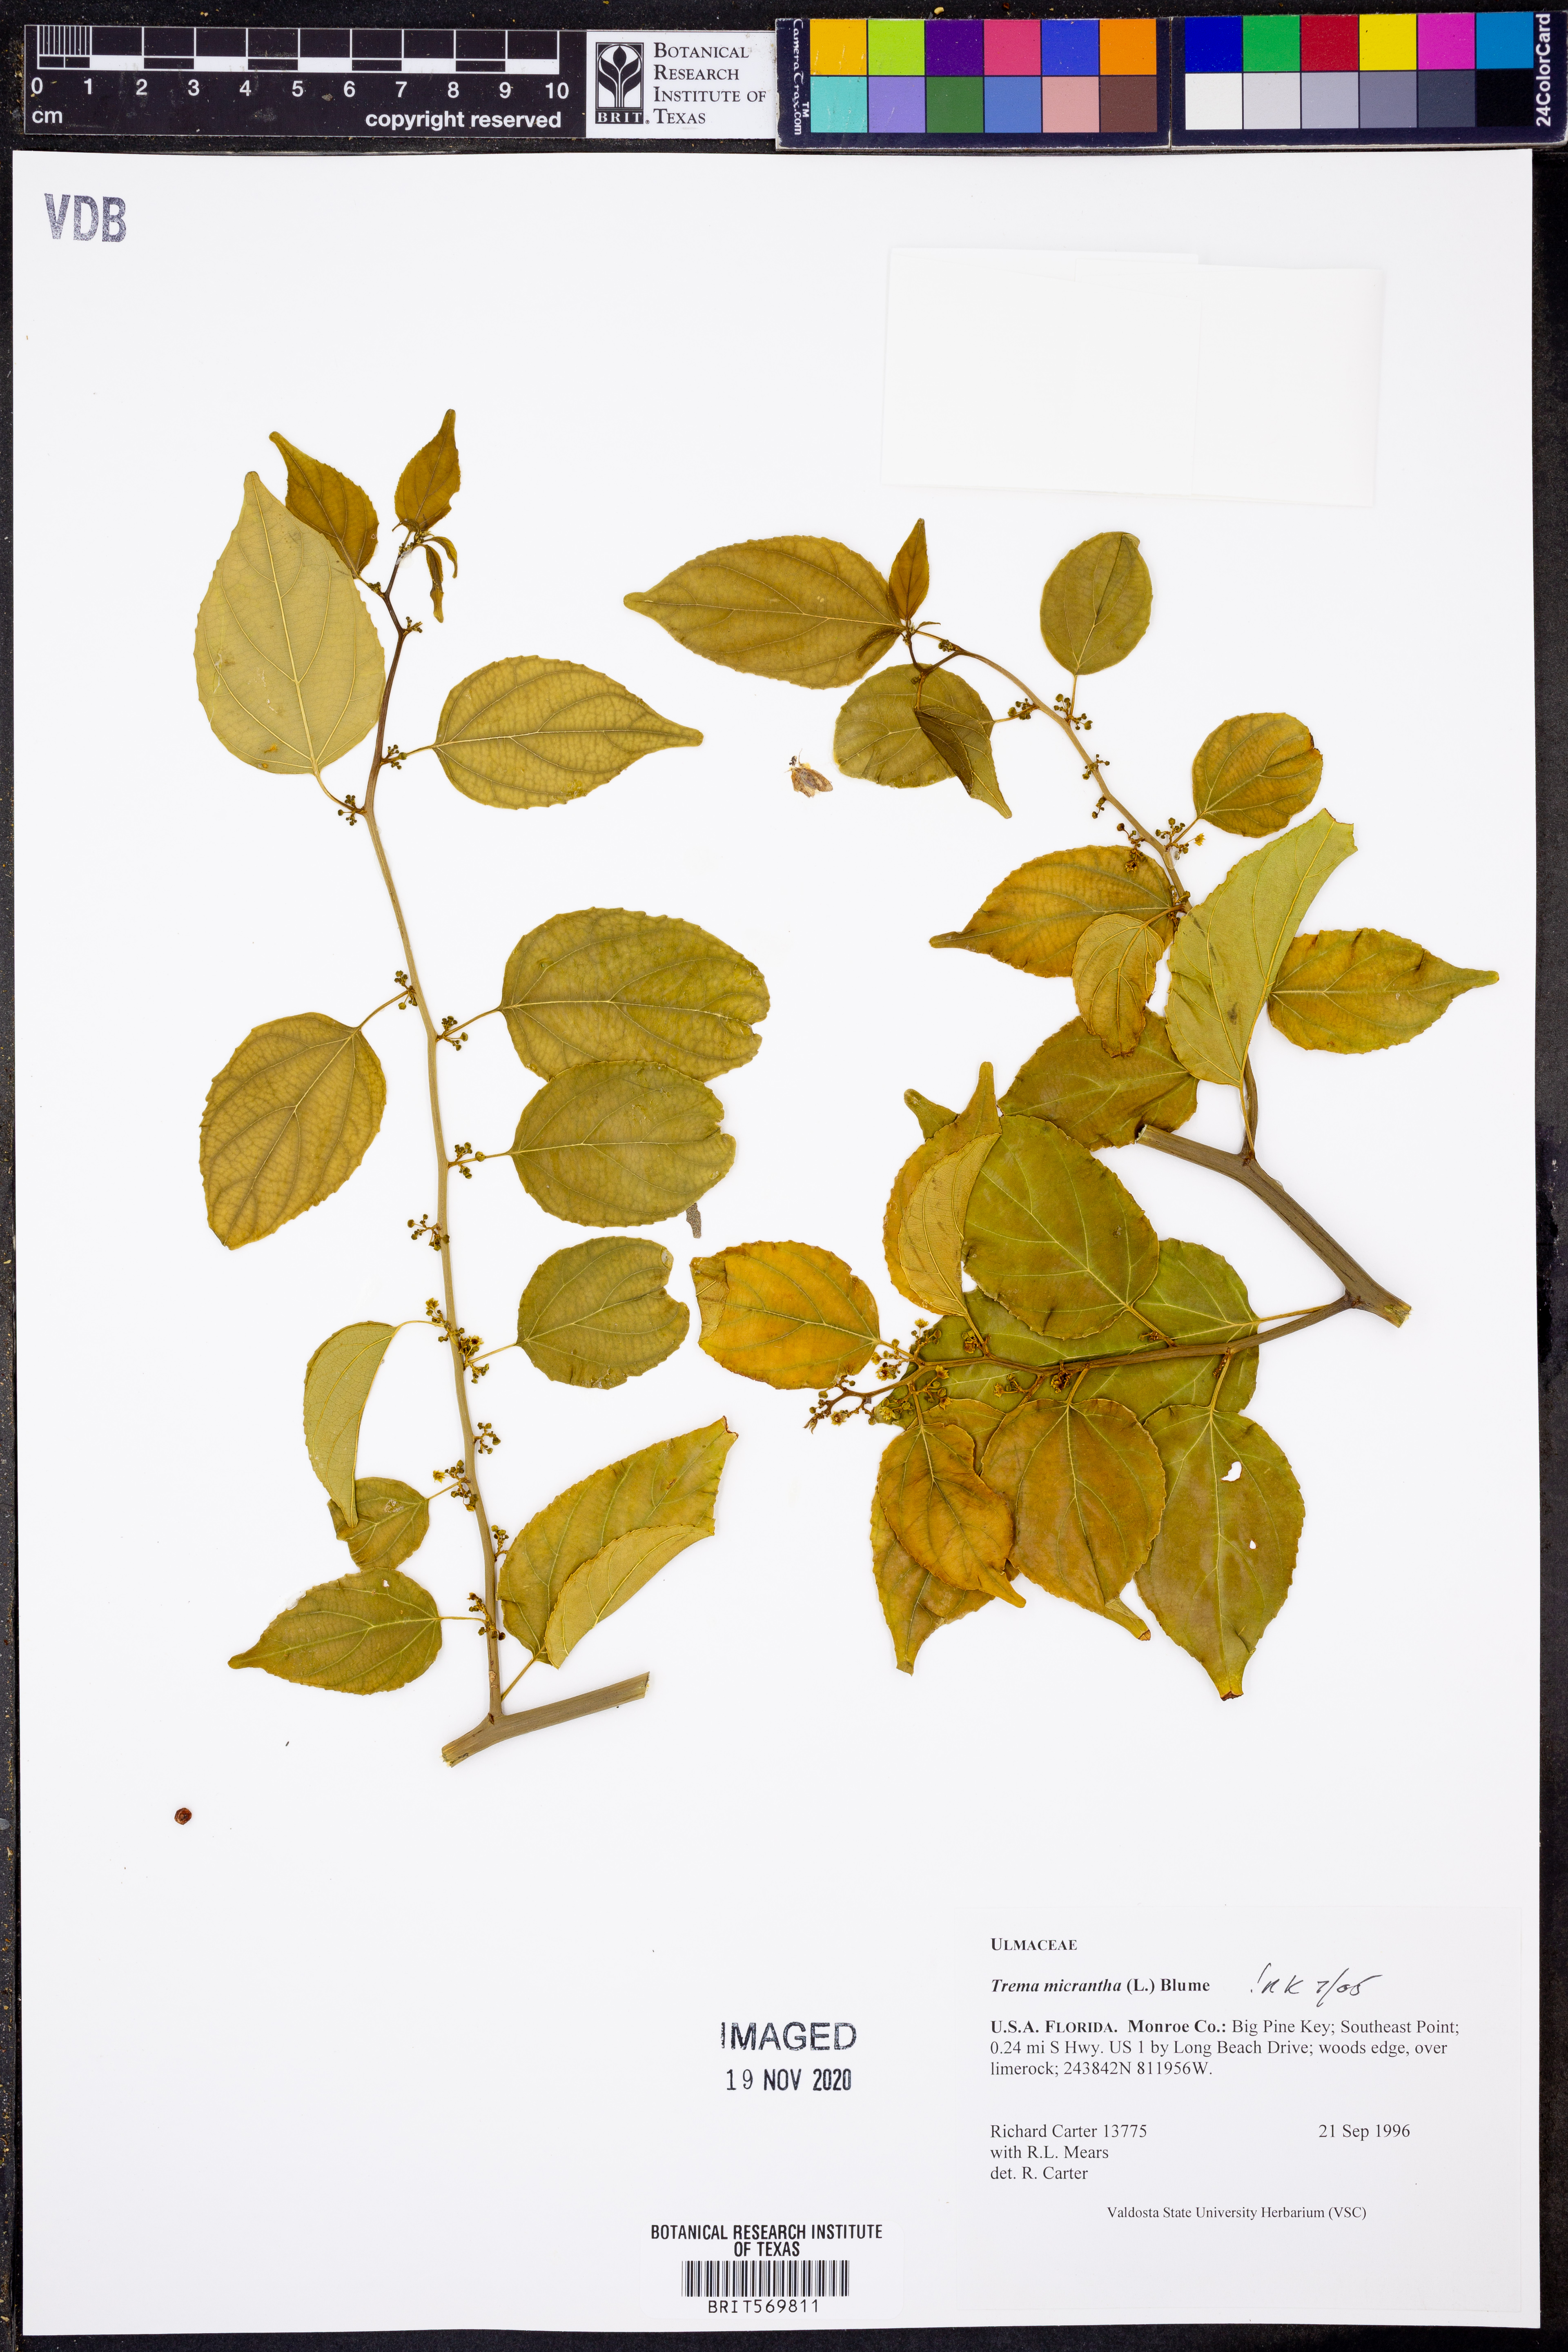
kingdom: Plantae
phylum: Tracheophyta
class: Magnoliopsida
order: Rosales
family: Cannabaceae
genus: Trema
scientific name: Trema micranthum
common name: Jamaican nettletree
